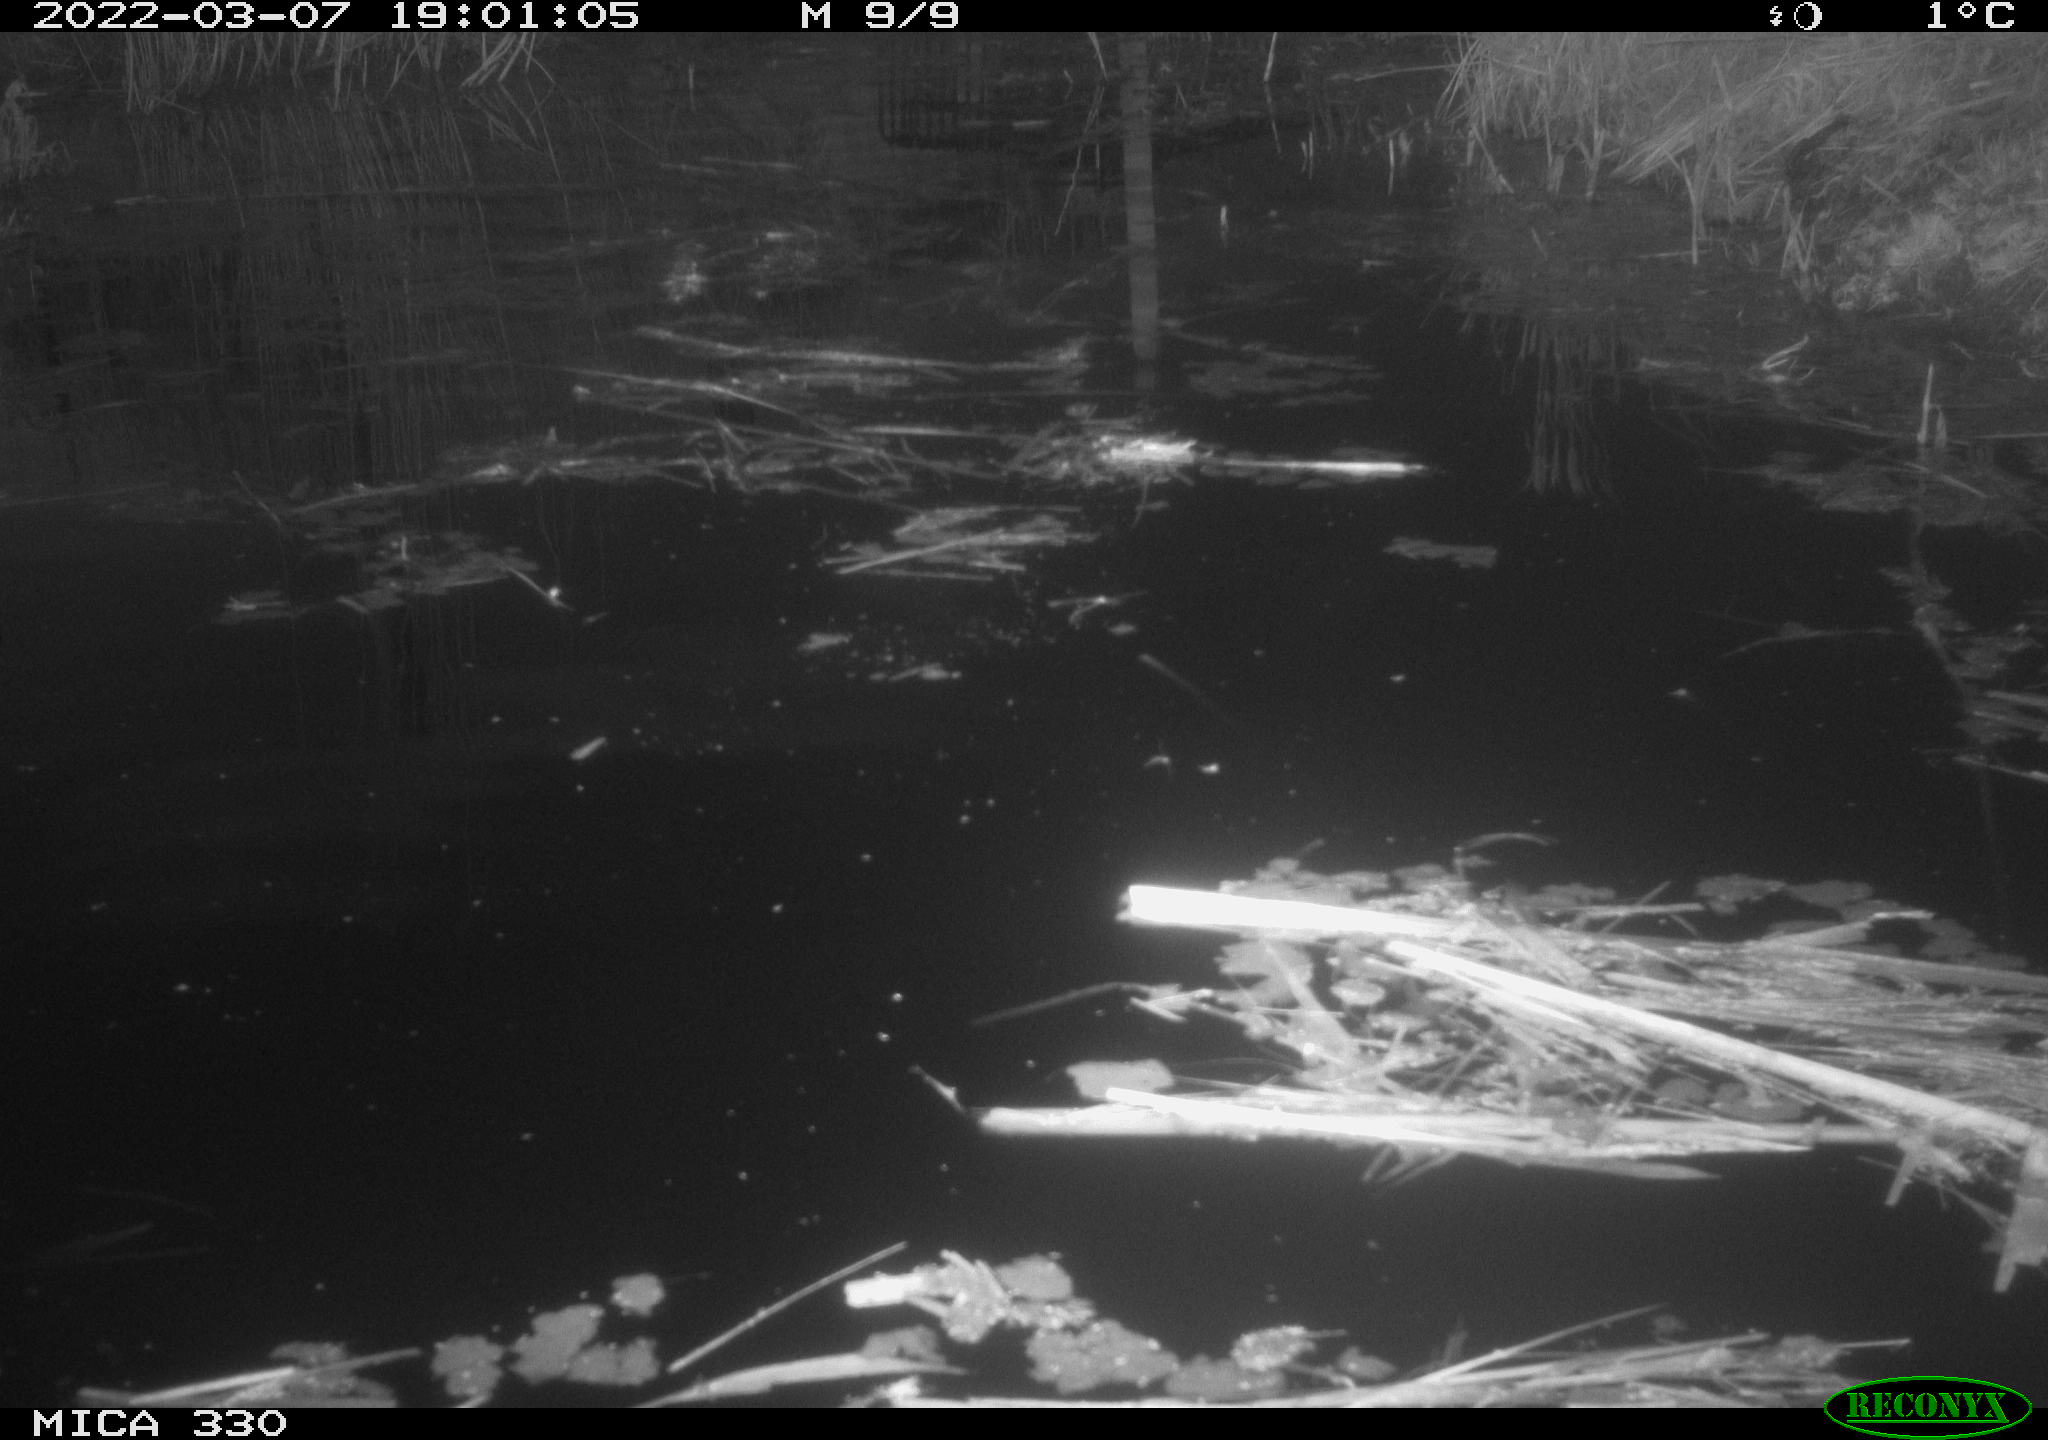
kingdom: Animalia
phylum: Chordata
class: Aves
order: Gruiformes
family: Rallidae
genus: Gallinula
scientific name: Gallinula chloropus
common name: Common moorhen
